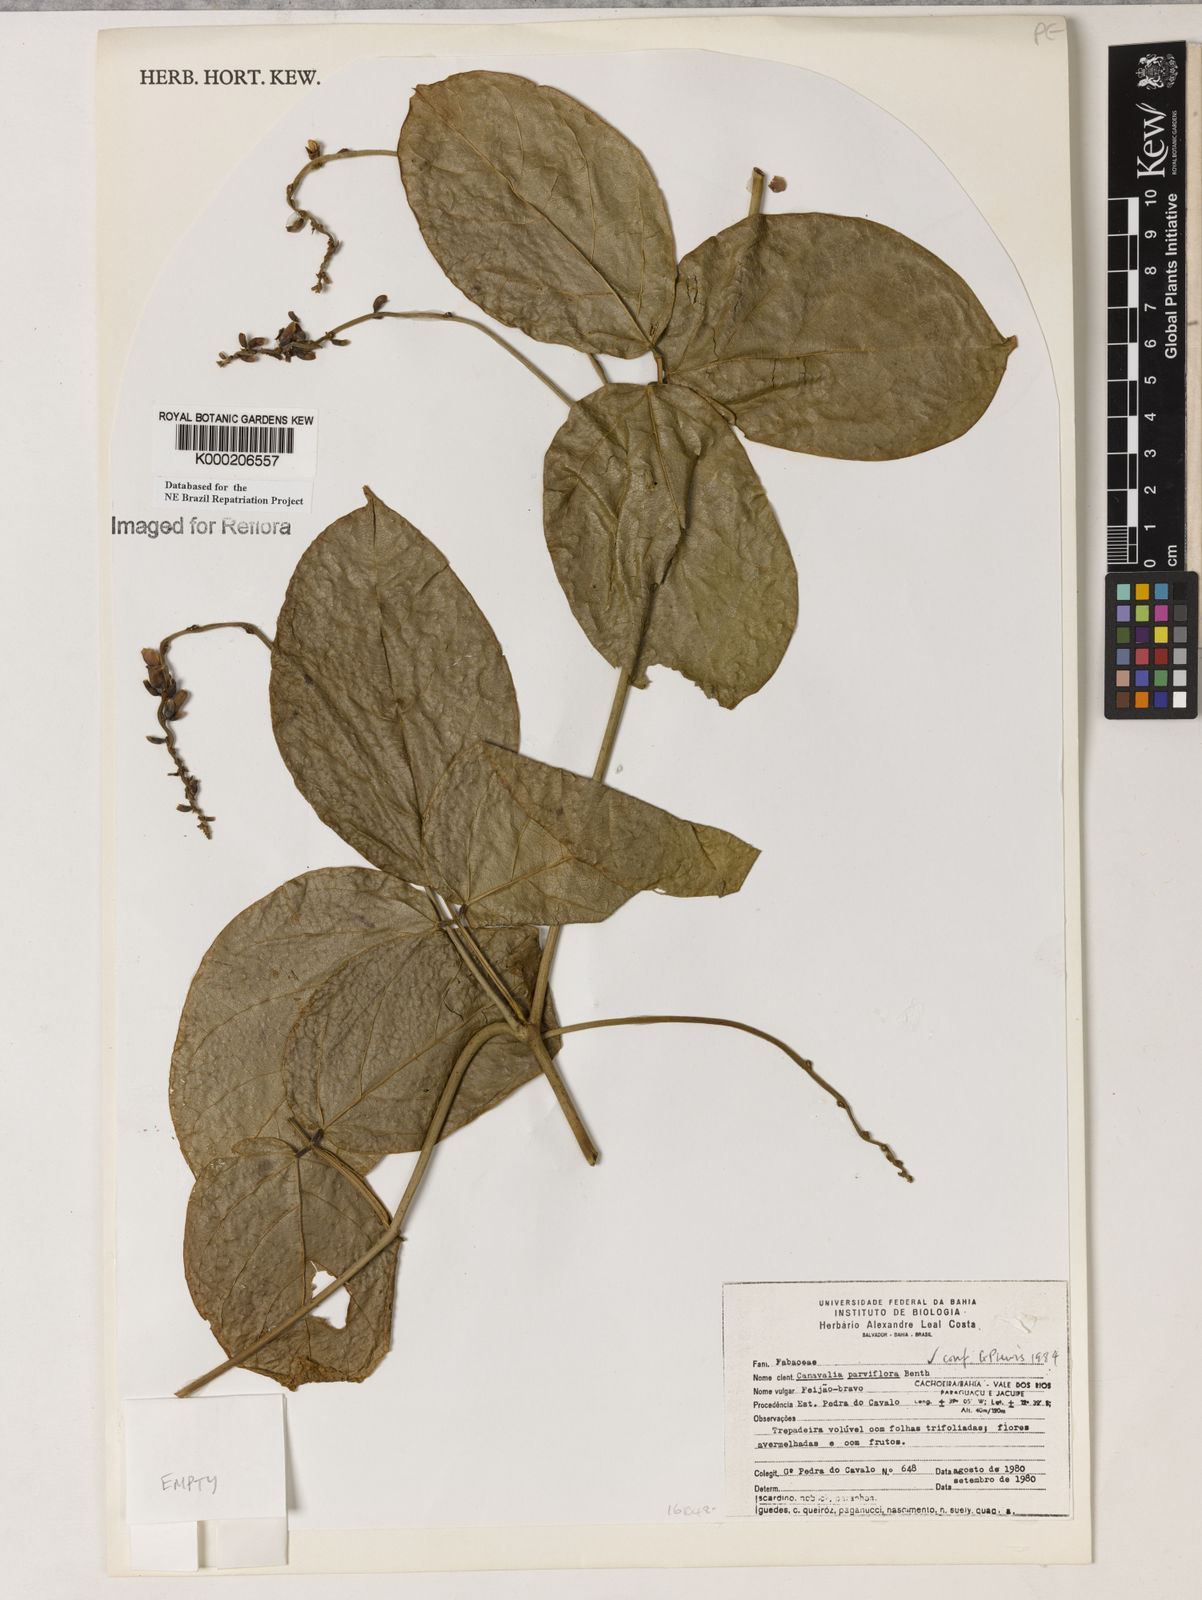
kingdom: Plantae
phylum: Tracheophyta
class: Magnoliopsida
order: Fabales
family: Fabaceae
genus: Canavalia
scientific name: Canavalia parviflora
